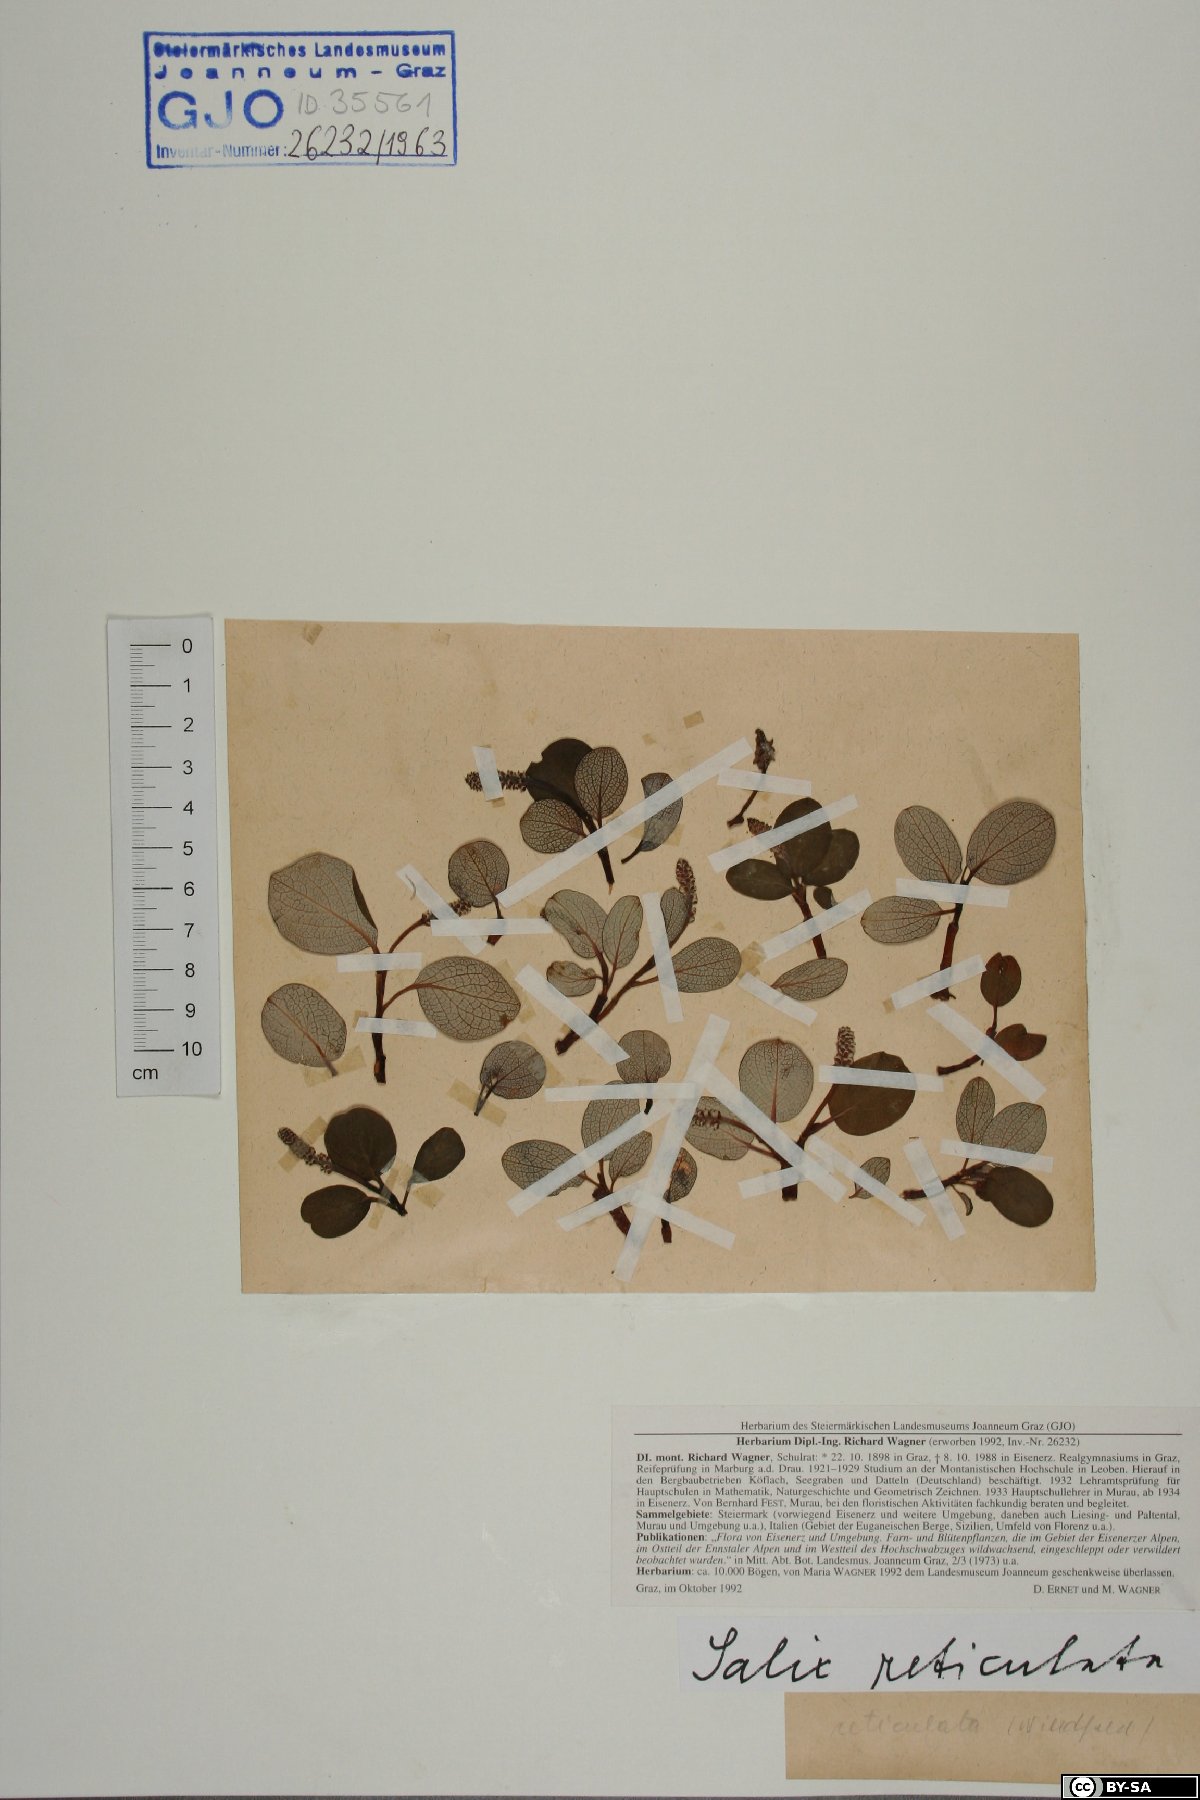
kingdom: Plantae
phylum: Tracheophyta
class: Magnoliopsida
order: Malpighiales
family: Salicaceae
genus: Salix
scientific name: Salix reticulata
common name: Net-leaved willow
